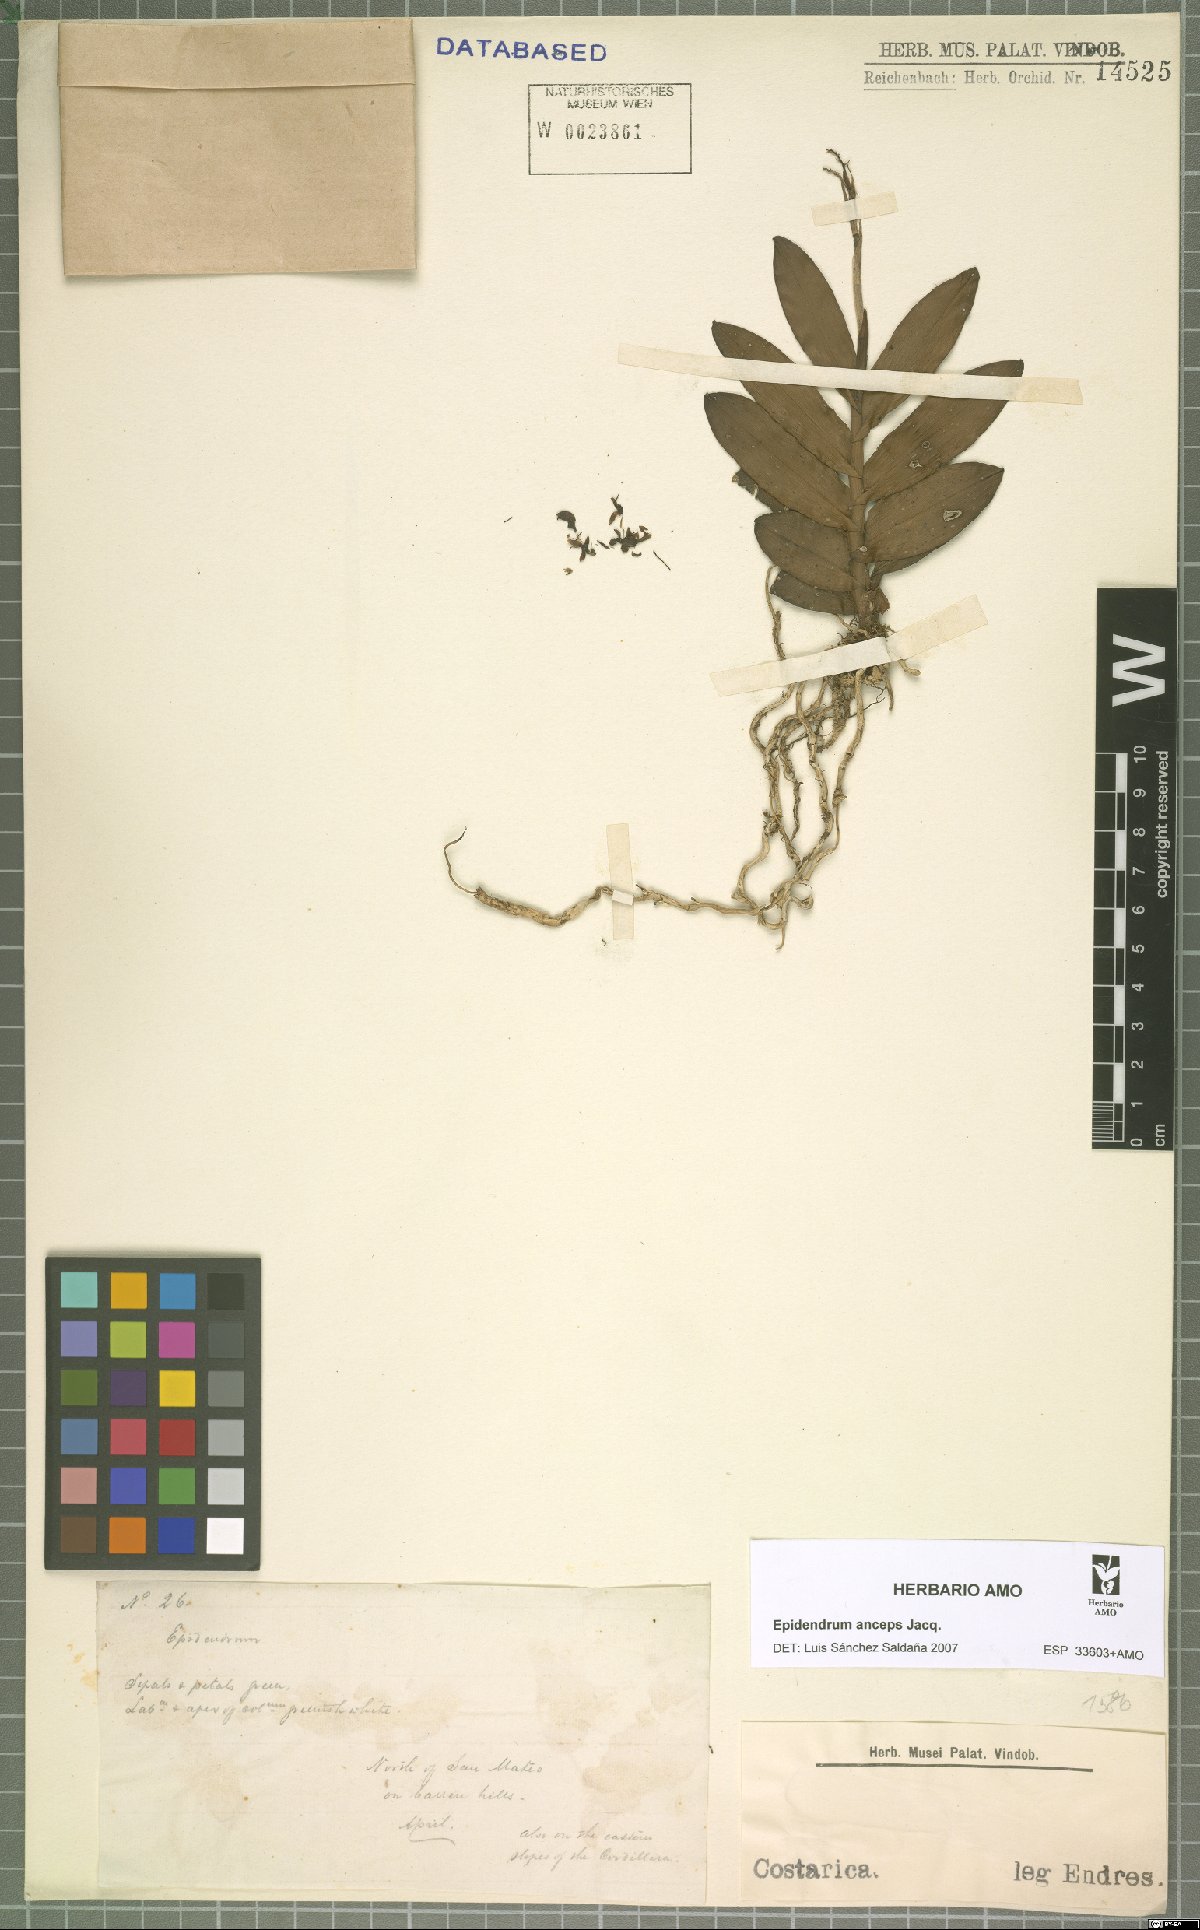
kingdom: Plantae
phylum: Tracheophyta
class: Liliopsida
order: Asparagales
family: Orchidaceae
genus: Epidendrum
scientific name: Epidendrum anceps
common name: Brown-flower butterfly orchid
